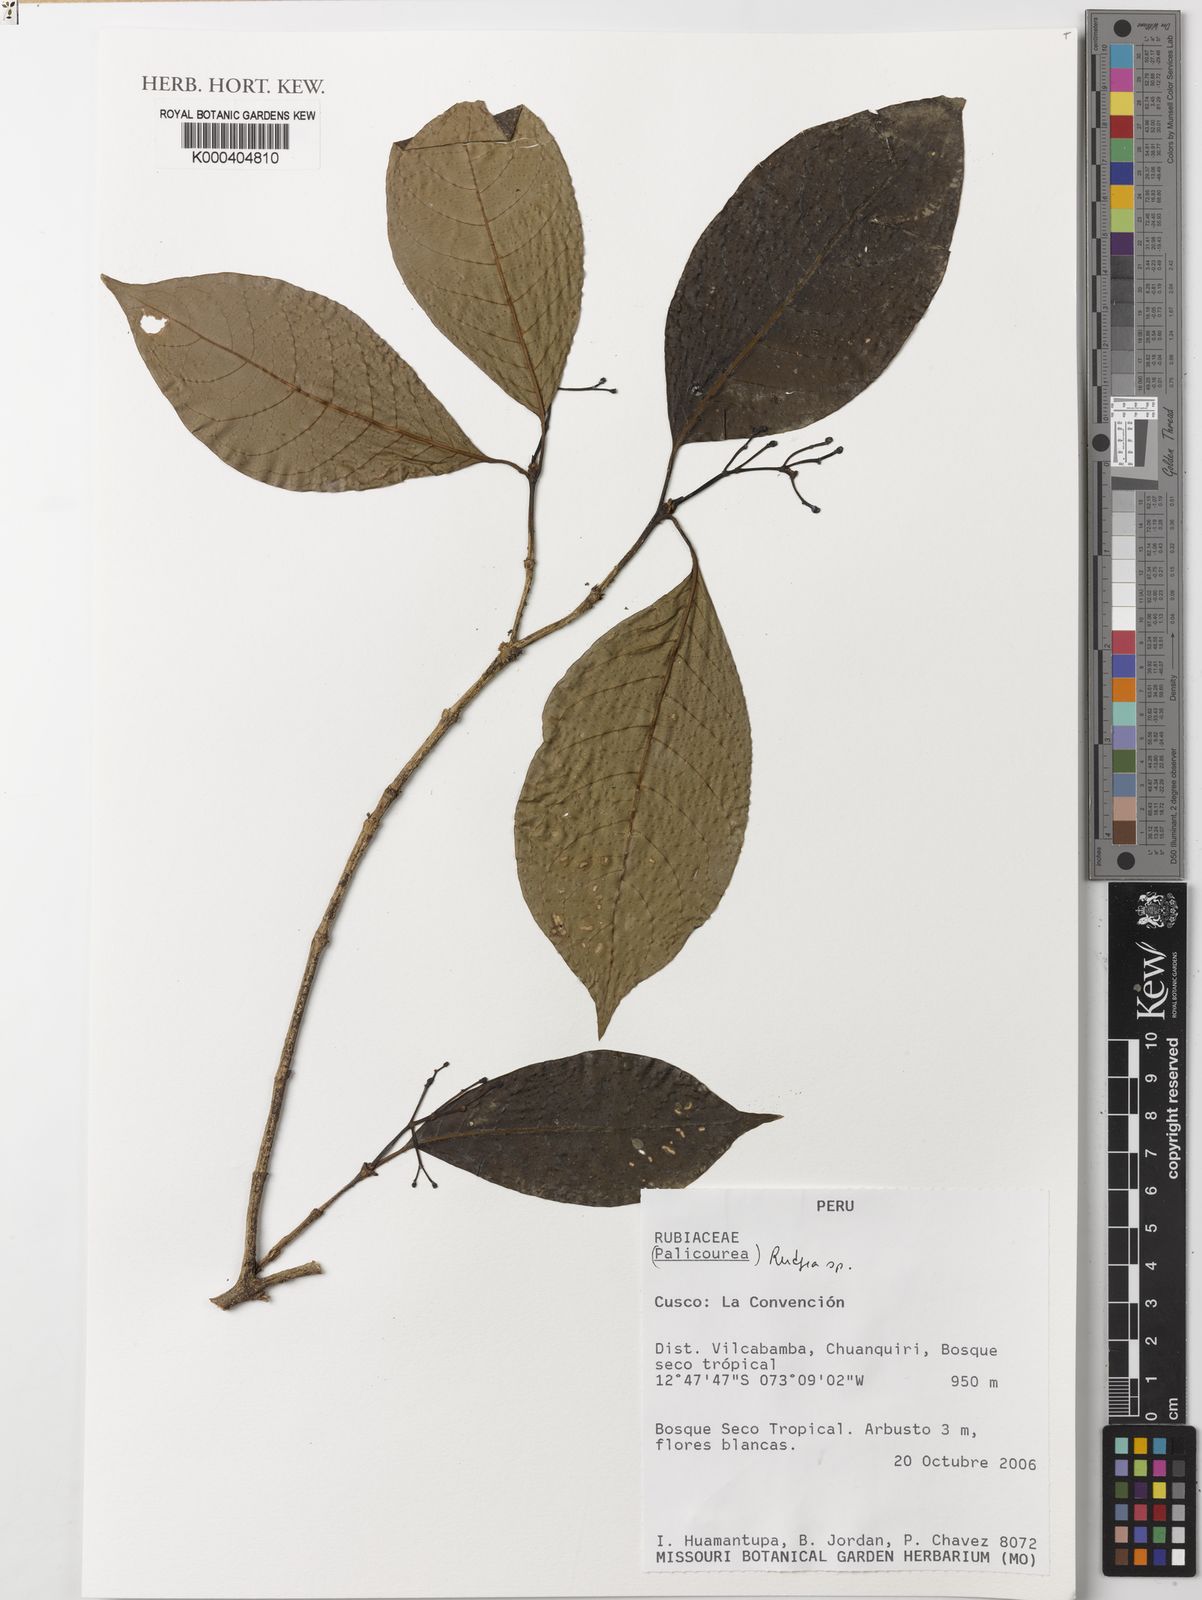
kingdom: Plantae
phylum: Tracheophyta
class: Magnoliopsida
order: Gentianales
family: Rubiaceae
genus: Rudgea
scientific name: Rudgea
